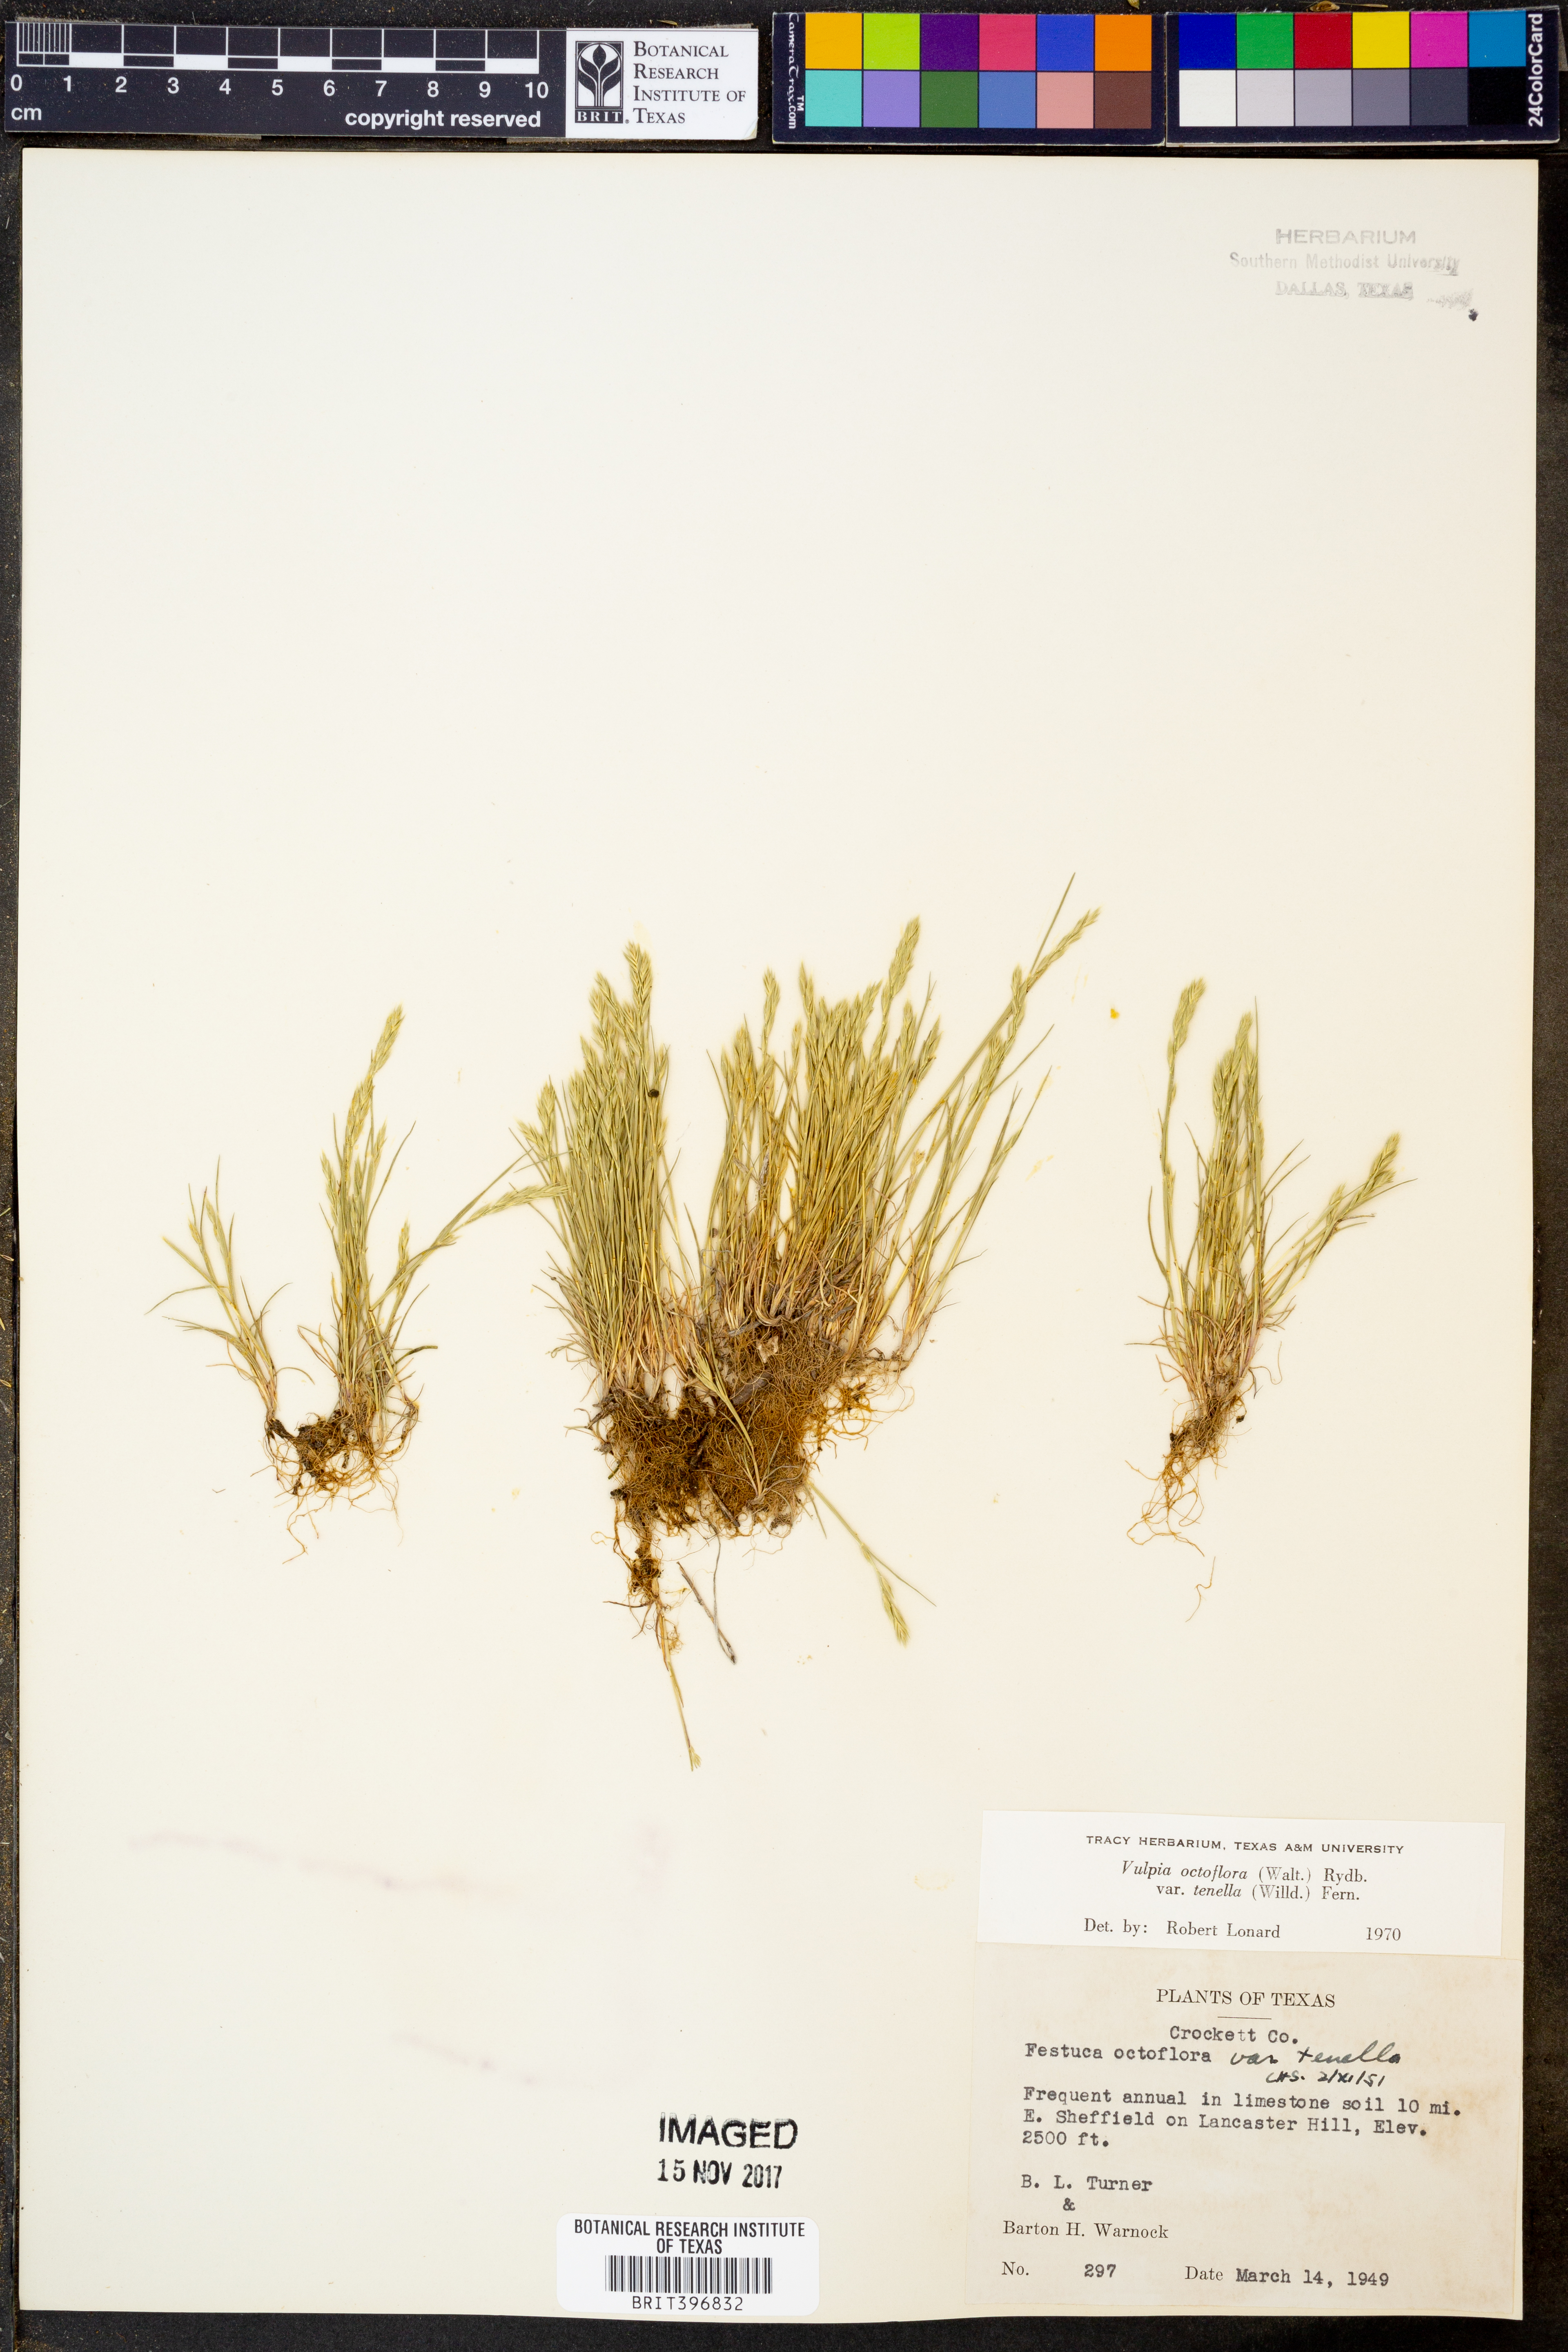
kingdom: Plantae
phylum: Tracheophyta
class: Liliopsida
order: Poales
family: Poaceae
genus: Festuca
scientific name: Festuca octoflora
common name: Sixweeks grass
